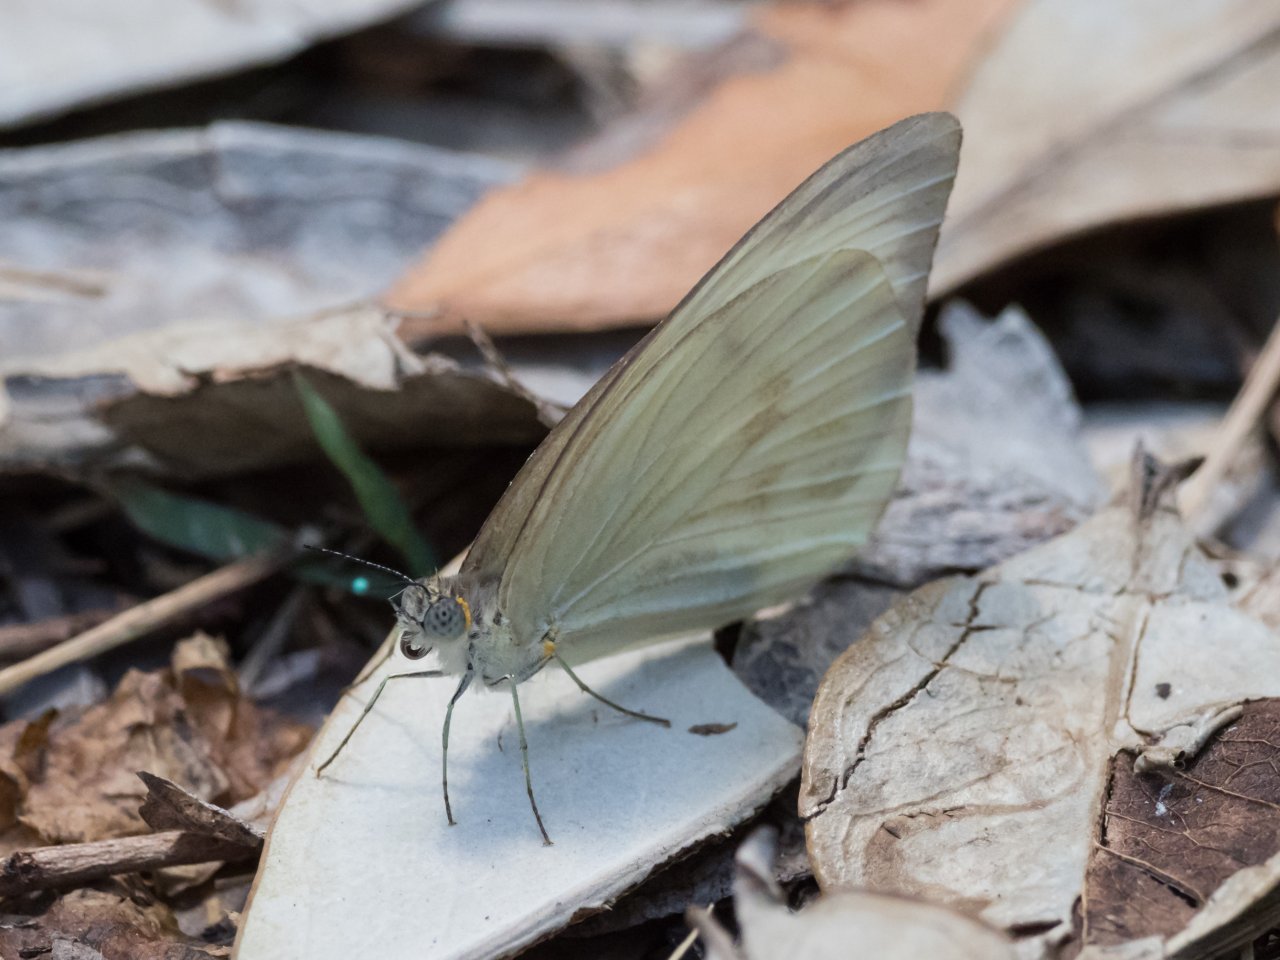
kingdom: Animalia
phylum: Arthropoda
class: Insecta
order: Lepidoptera
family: Pieridae
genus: Ascia
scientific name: Ascia monuste
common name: Great Southern White
